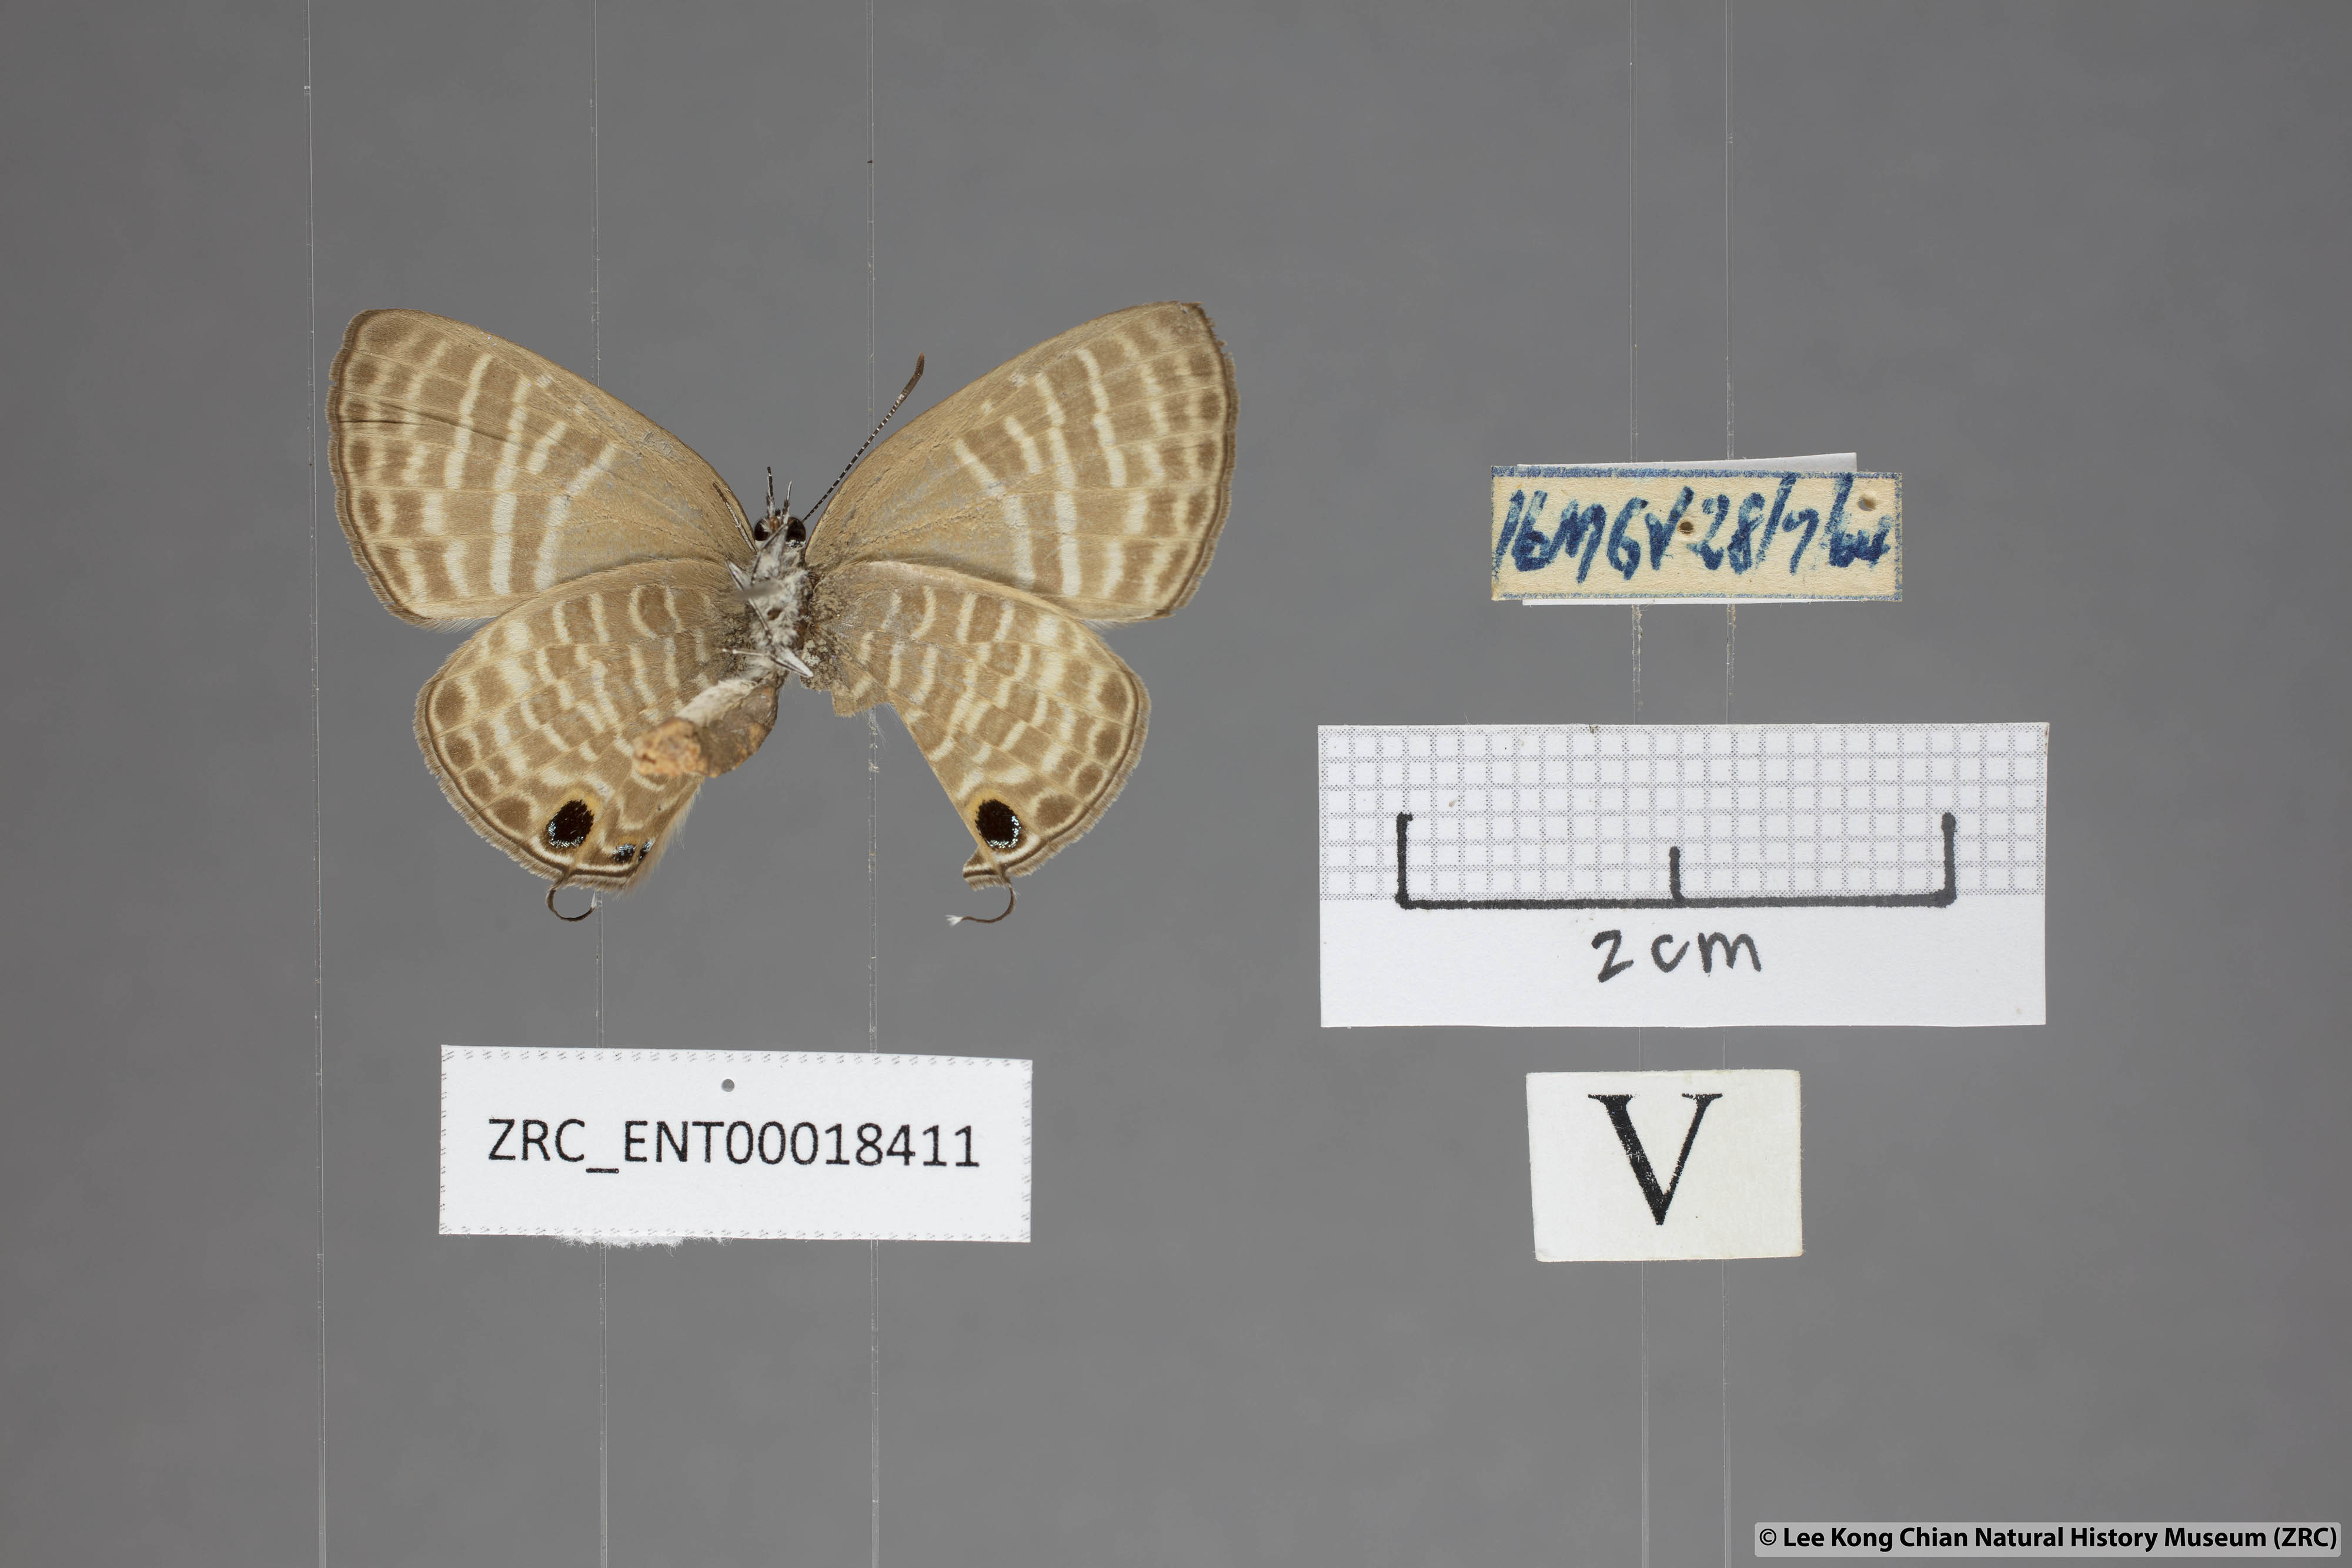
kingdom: Animalia
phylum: Arthropoda
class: Insecta
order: Lepidoptera
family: Lycaenidae
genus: Nacaduba
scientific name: Nacaduba pactolus
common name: Large fourline blue
